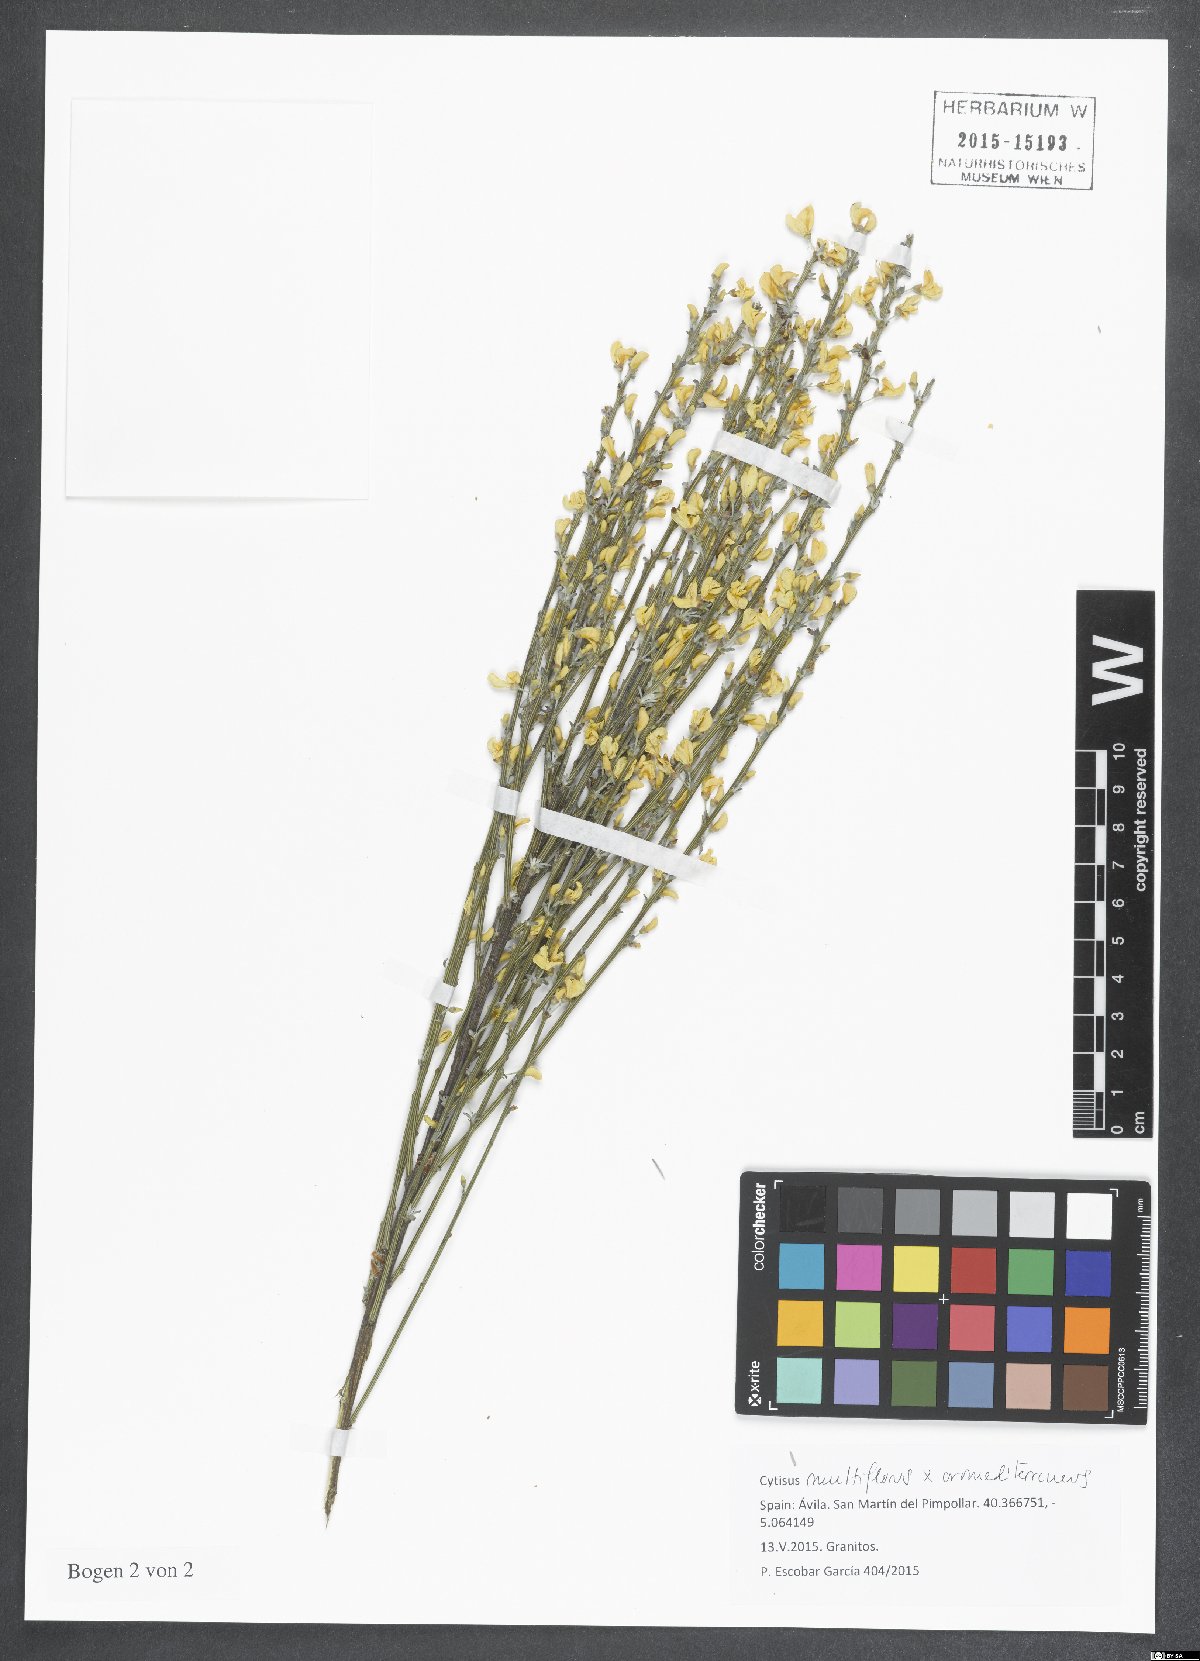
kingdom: Plantae
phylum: Tracheophyta
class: Magnoliopsida
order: Fabales
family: Fabaceae
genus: Cytisus
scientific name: Cytisus
